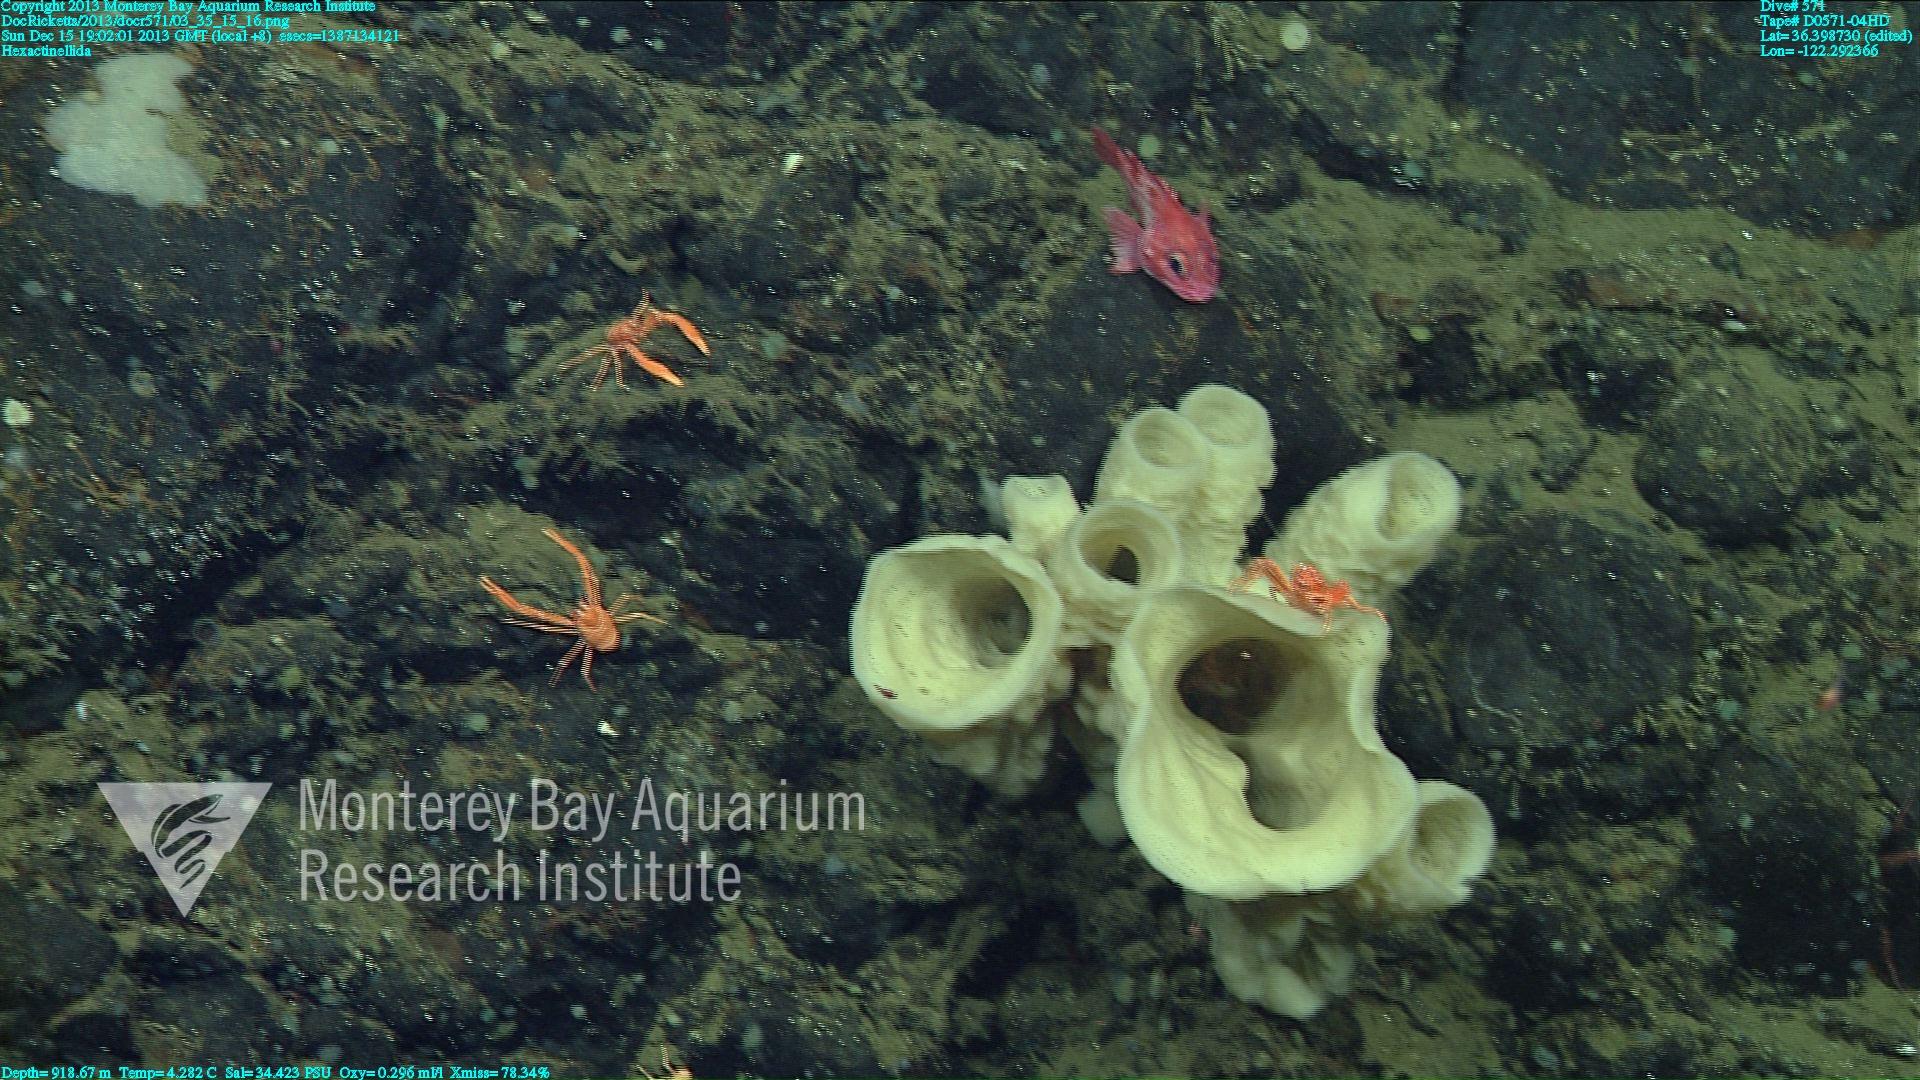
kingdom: Animalia
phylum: Porifera
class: Hexactinellida
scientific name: Hexactinellida
